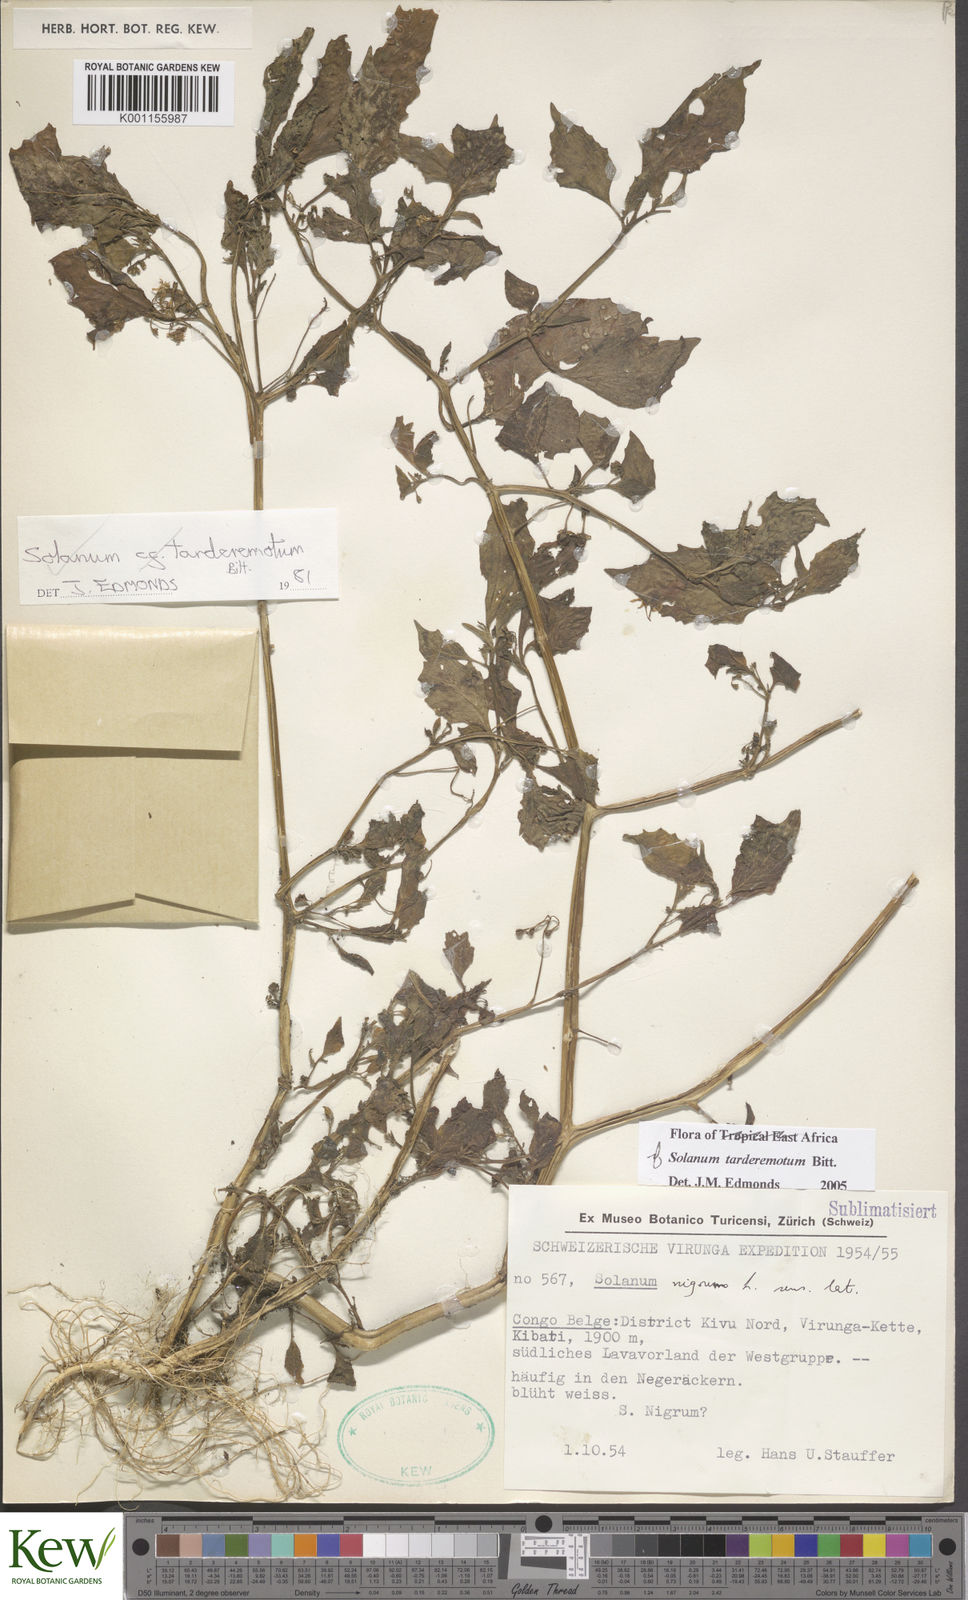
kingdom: Plantae
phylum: Tracheophyta
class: Magnoliopsida
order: Solanales
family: Solanaceae
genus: Solanum
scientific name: Solanum tarderemotum
